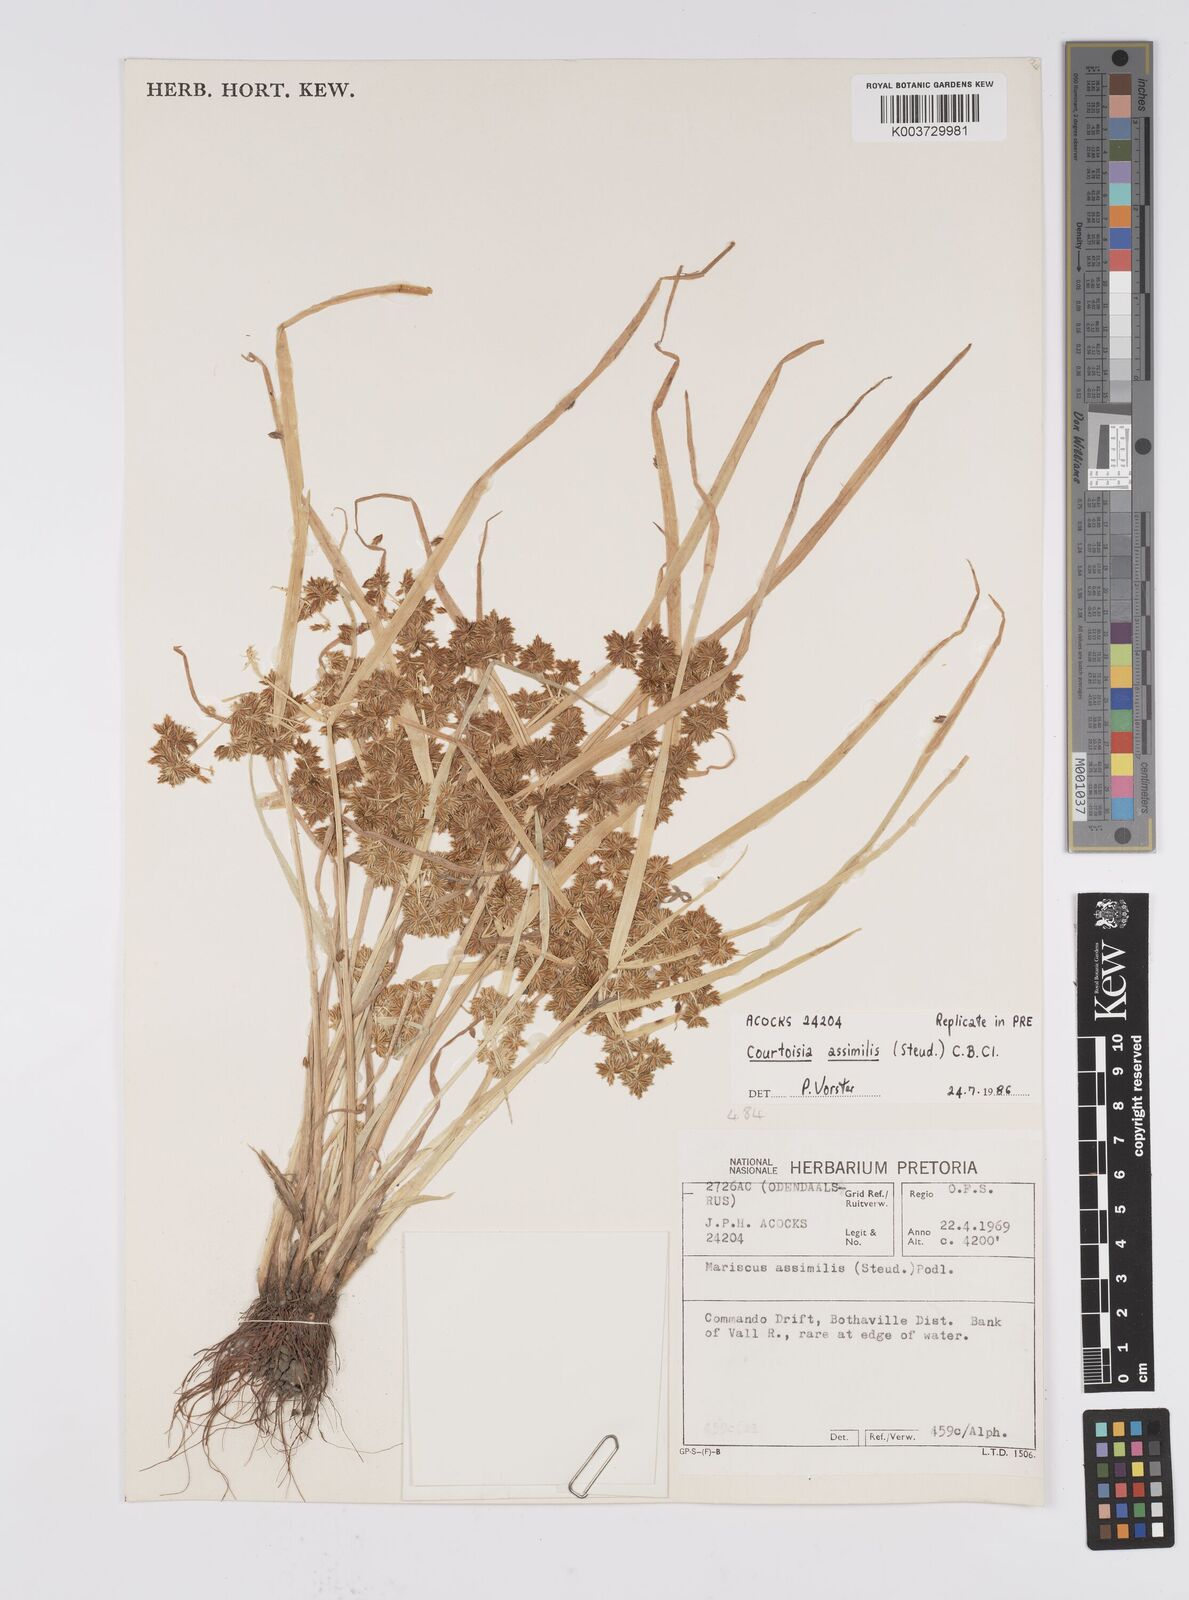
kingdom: Plantae
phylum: Tracheophyta
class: Liliopsida
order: Poales
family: Cyperaceae
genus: Cyperus
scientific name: Cyperus assimilis
